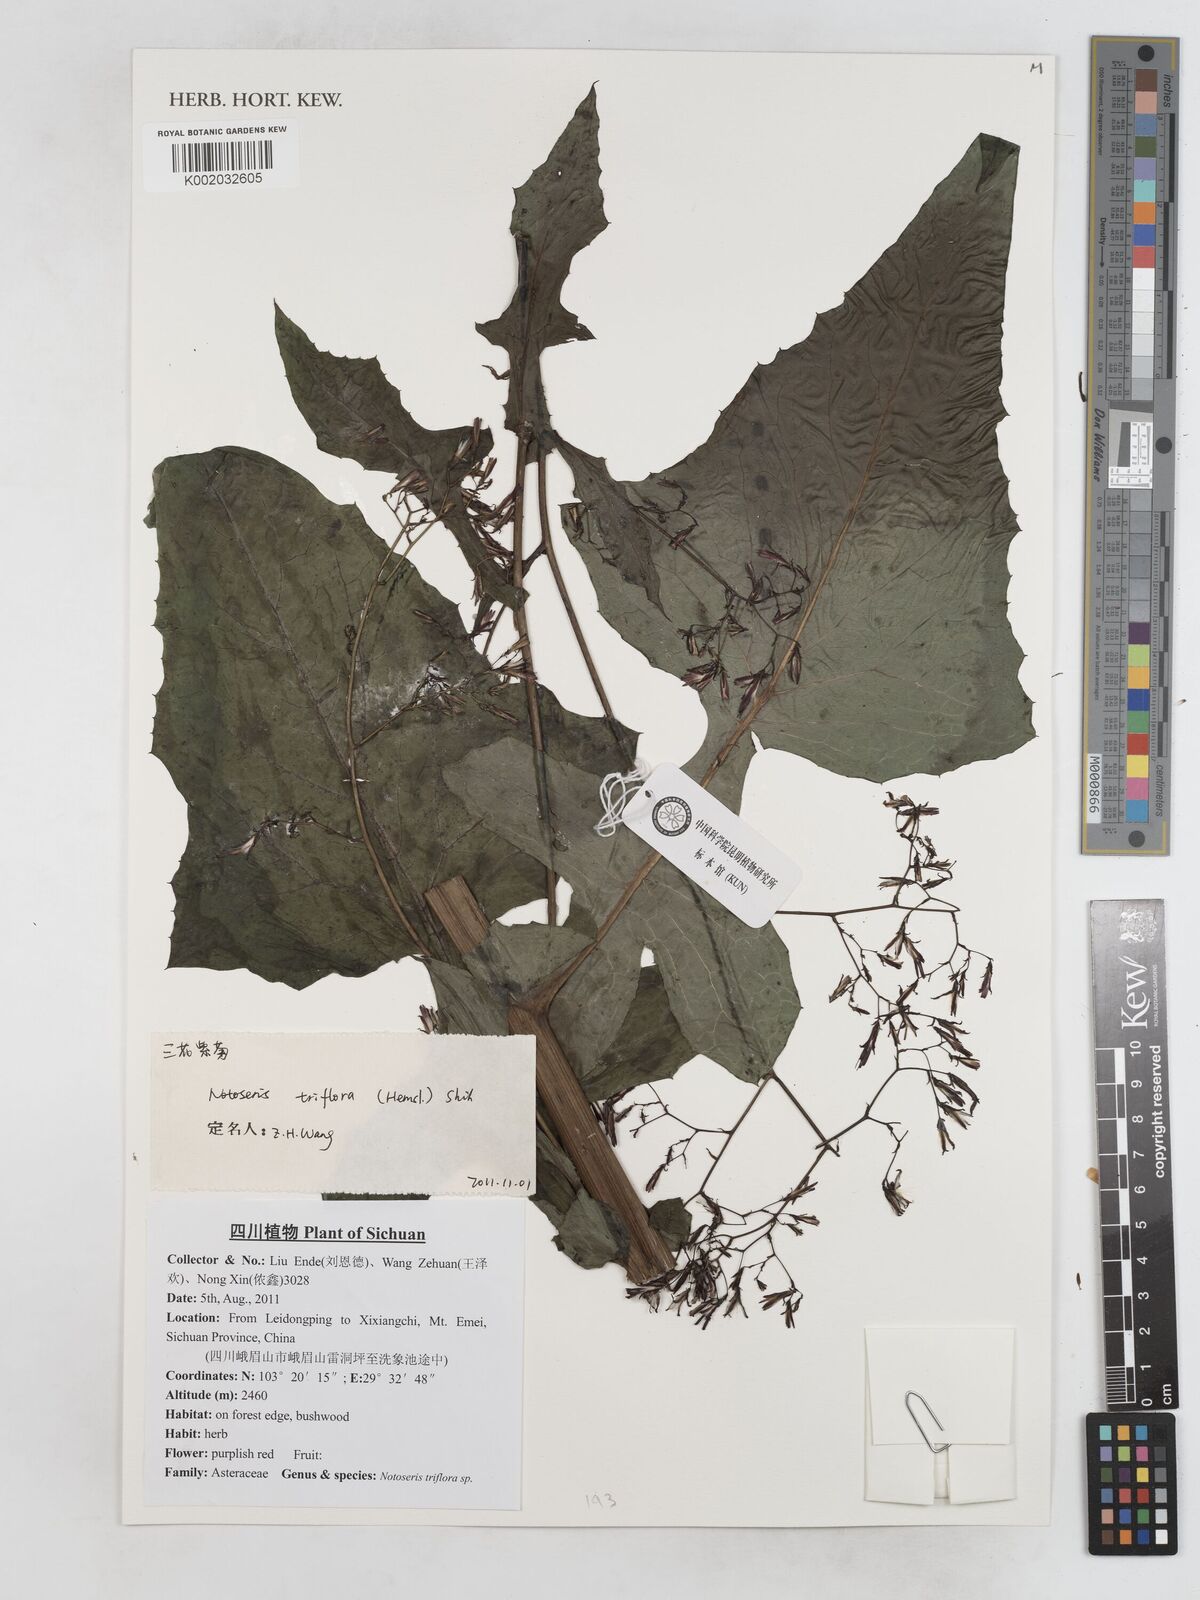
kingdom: Plantae
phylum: Tracheophyta
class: Magnoliopsida
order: Asterales
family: Asteraceae
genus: Notoseris
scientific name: Notoseris triflora
